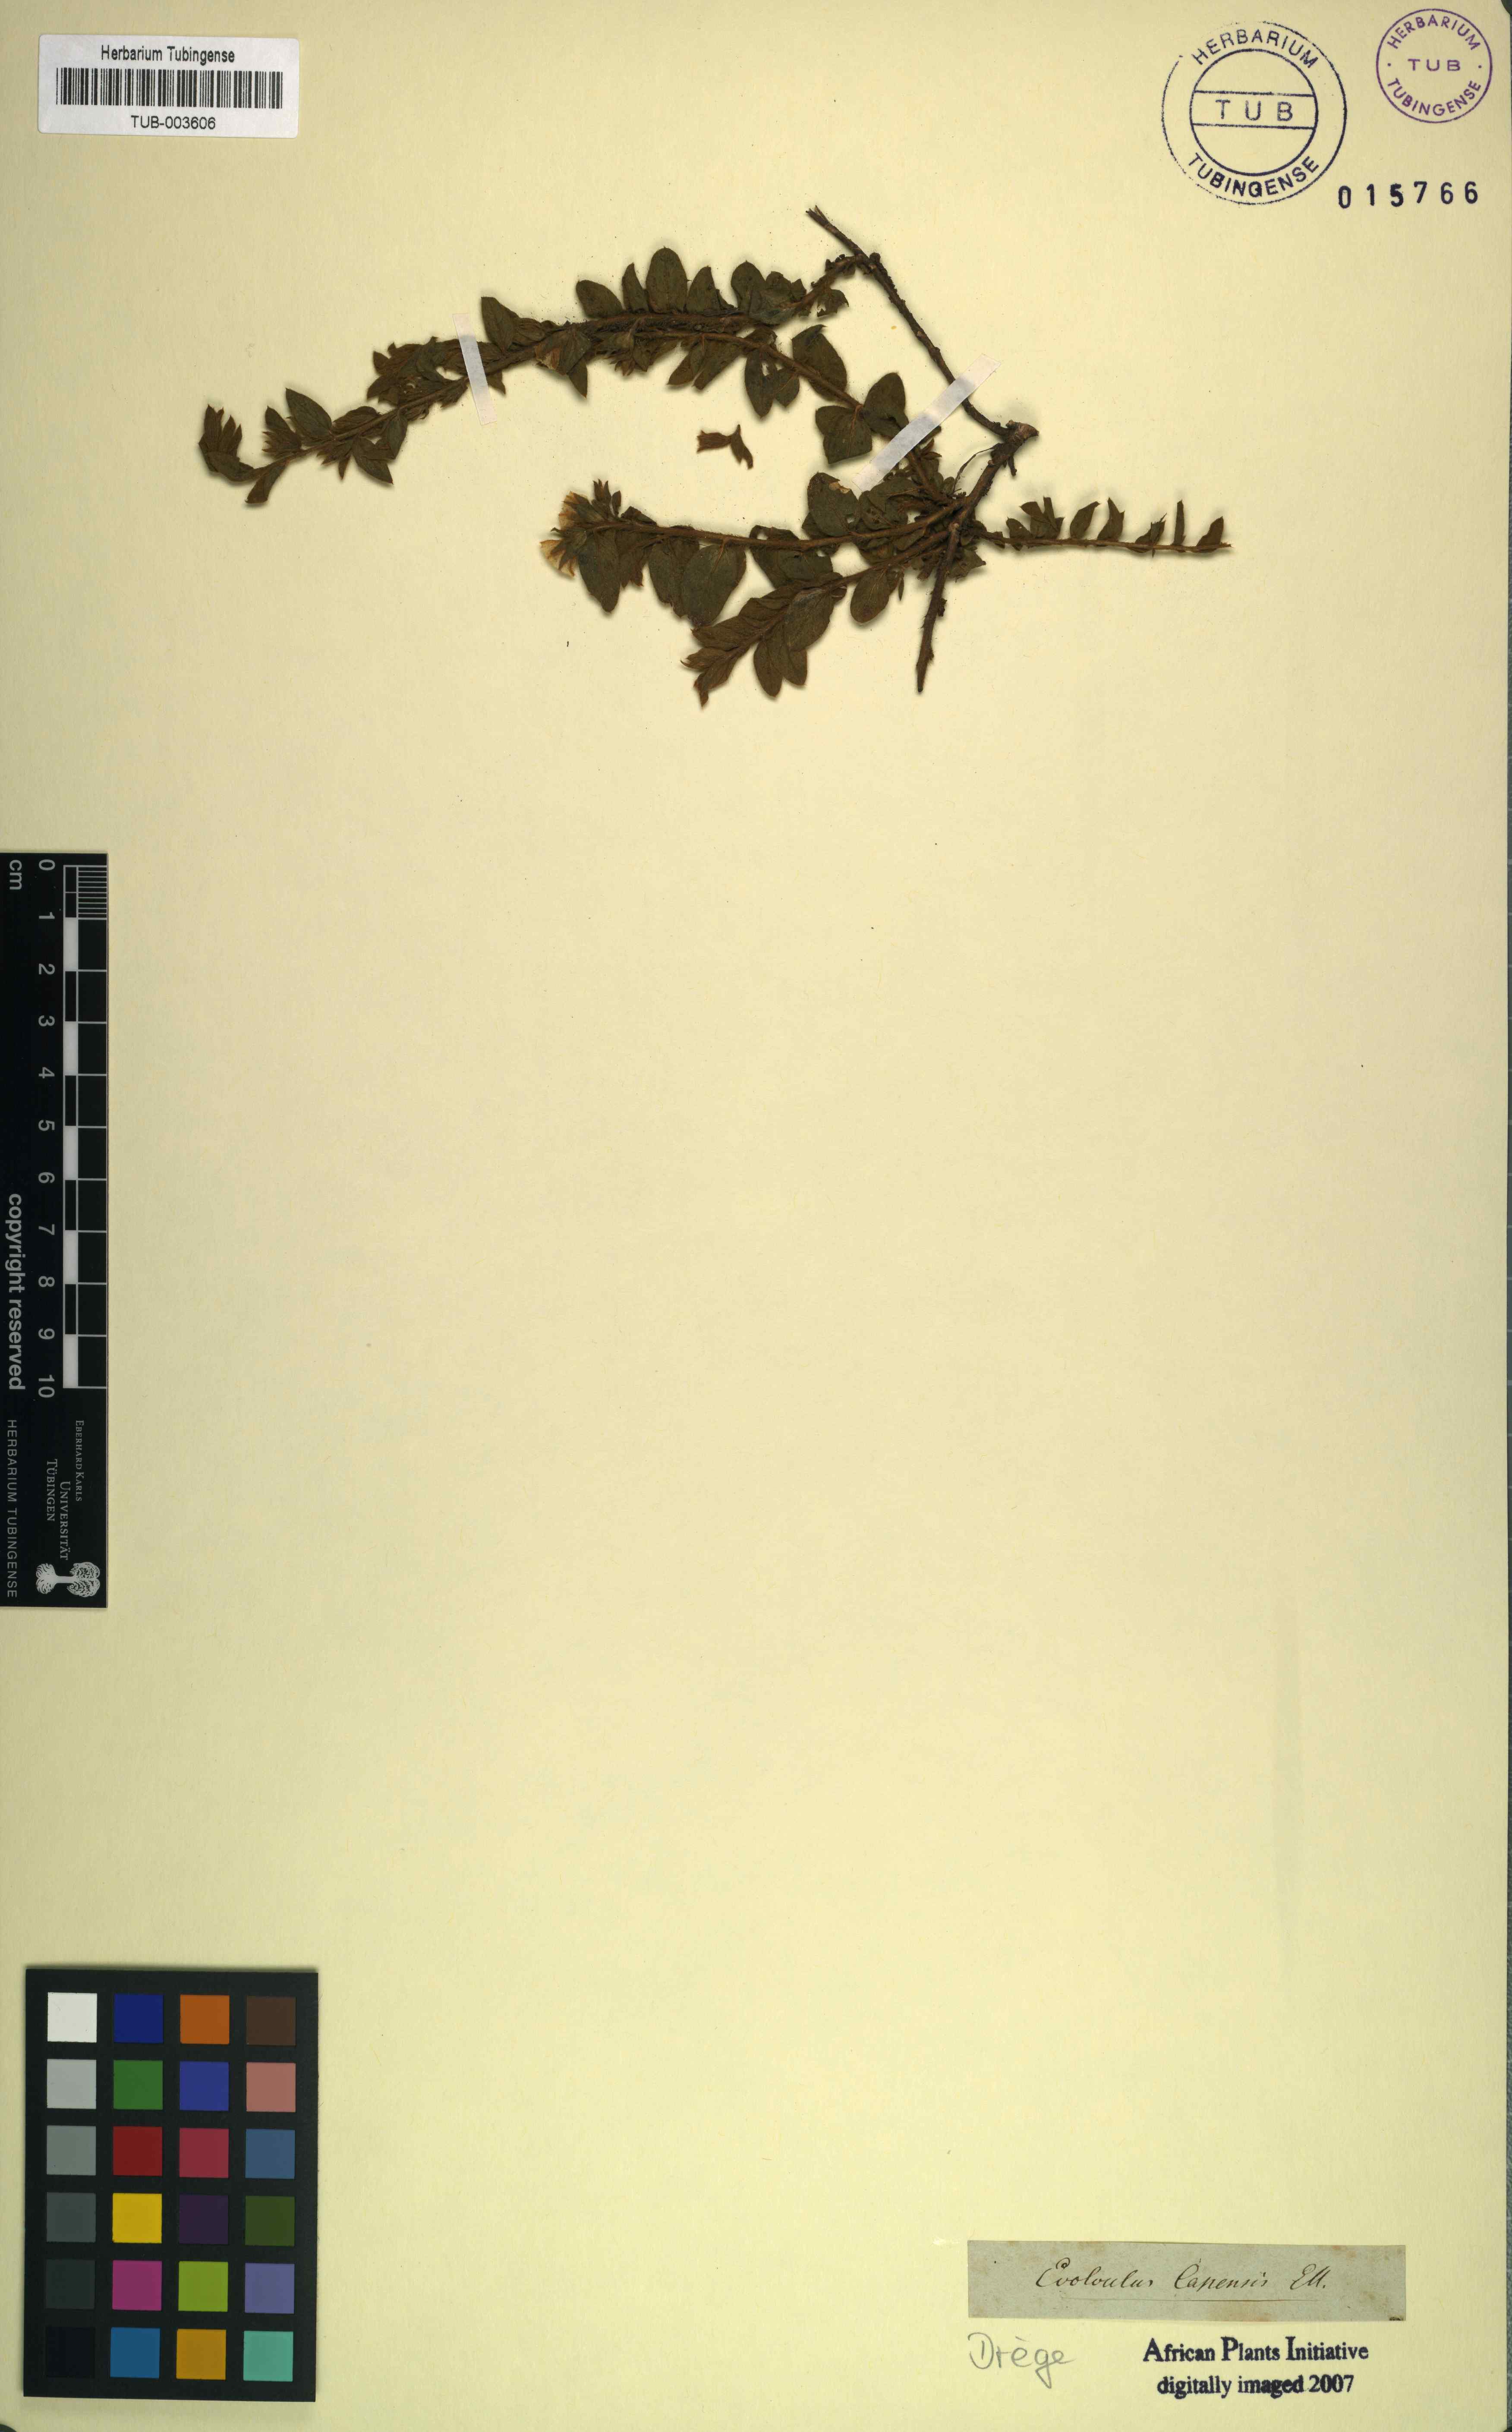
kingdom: Plantae
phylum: Tracheophyta
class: Magnoliopsida
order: Solanales
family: Convolvulaceae
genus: Seddera
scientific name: Seddera capensis
